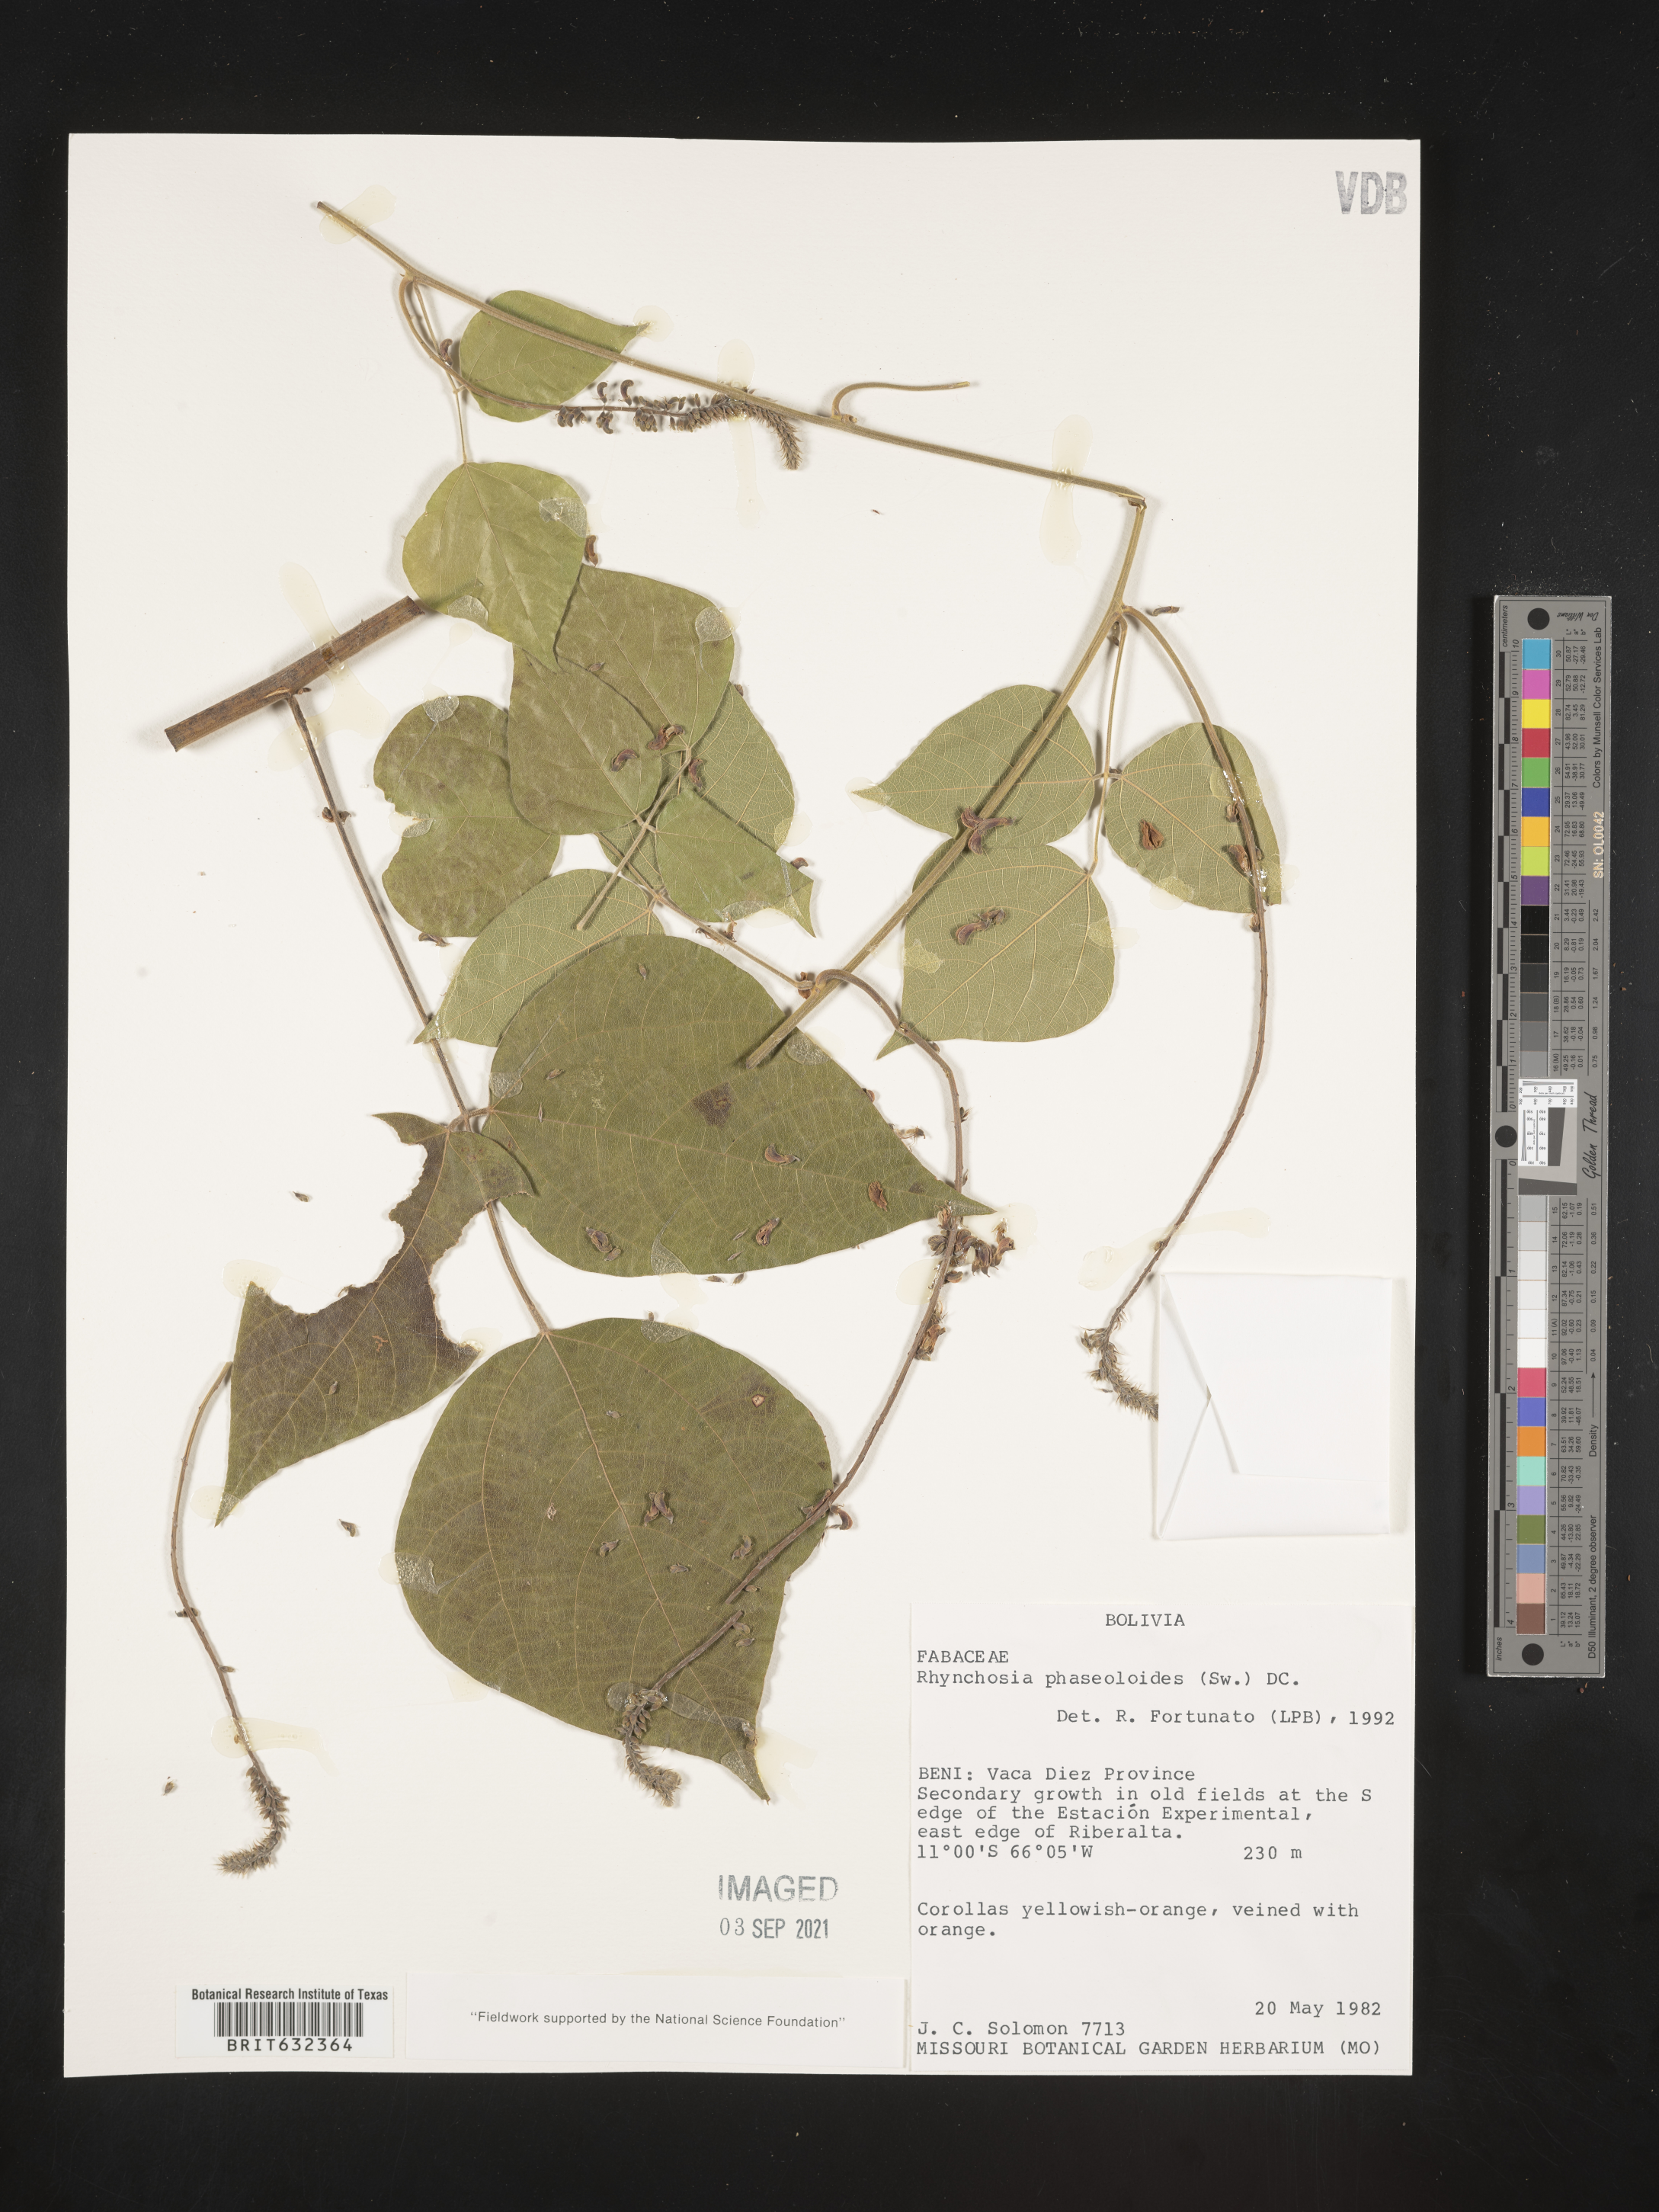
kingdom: Plantae
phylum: Tracheophyta
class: Magnoliopsida
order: Fabales
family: Fabaceae
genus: Rhynchosia
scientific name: Rhynchosia
